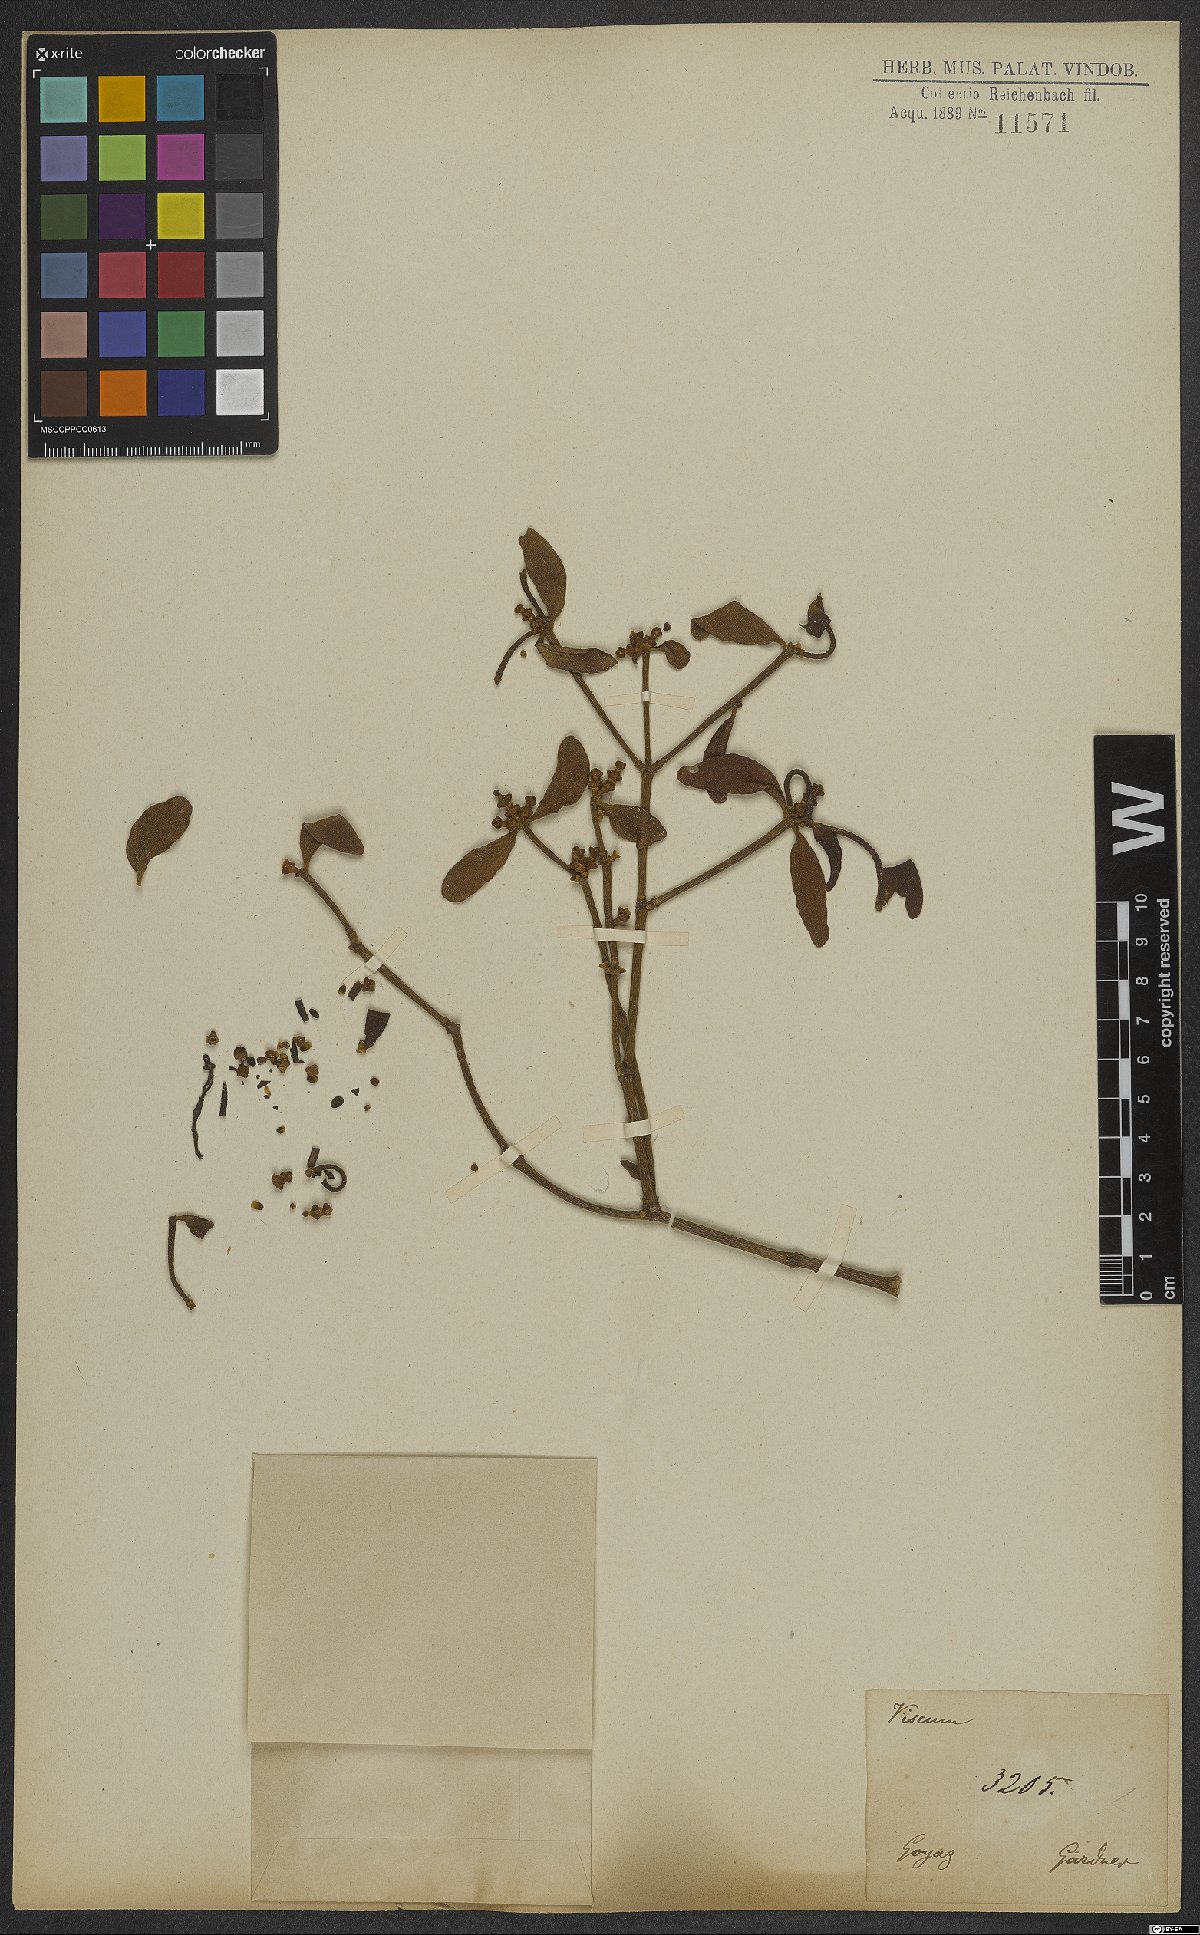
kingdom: Plantae
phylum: Tracheophyta
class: Magnoliopsida
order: Santalales
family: Viscaceae
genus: Viscum
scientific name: Viscum
